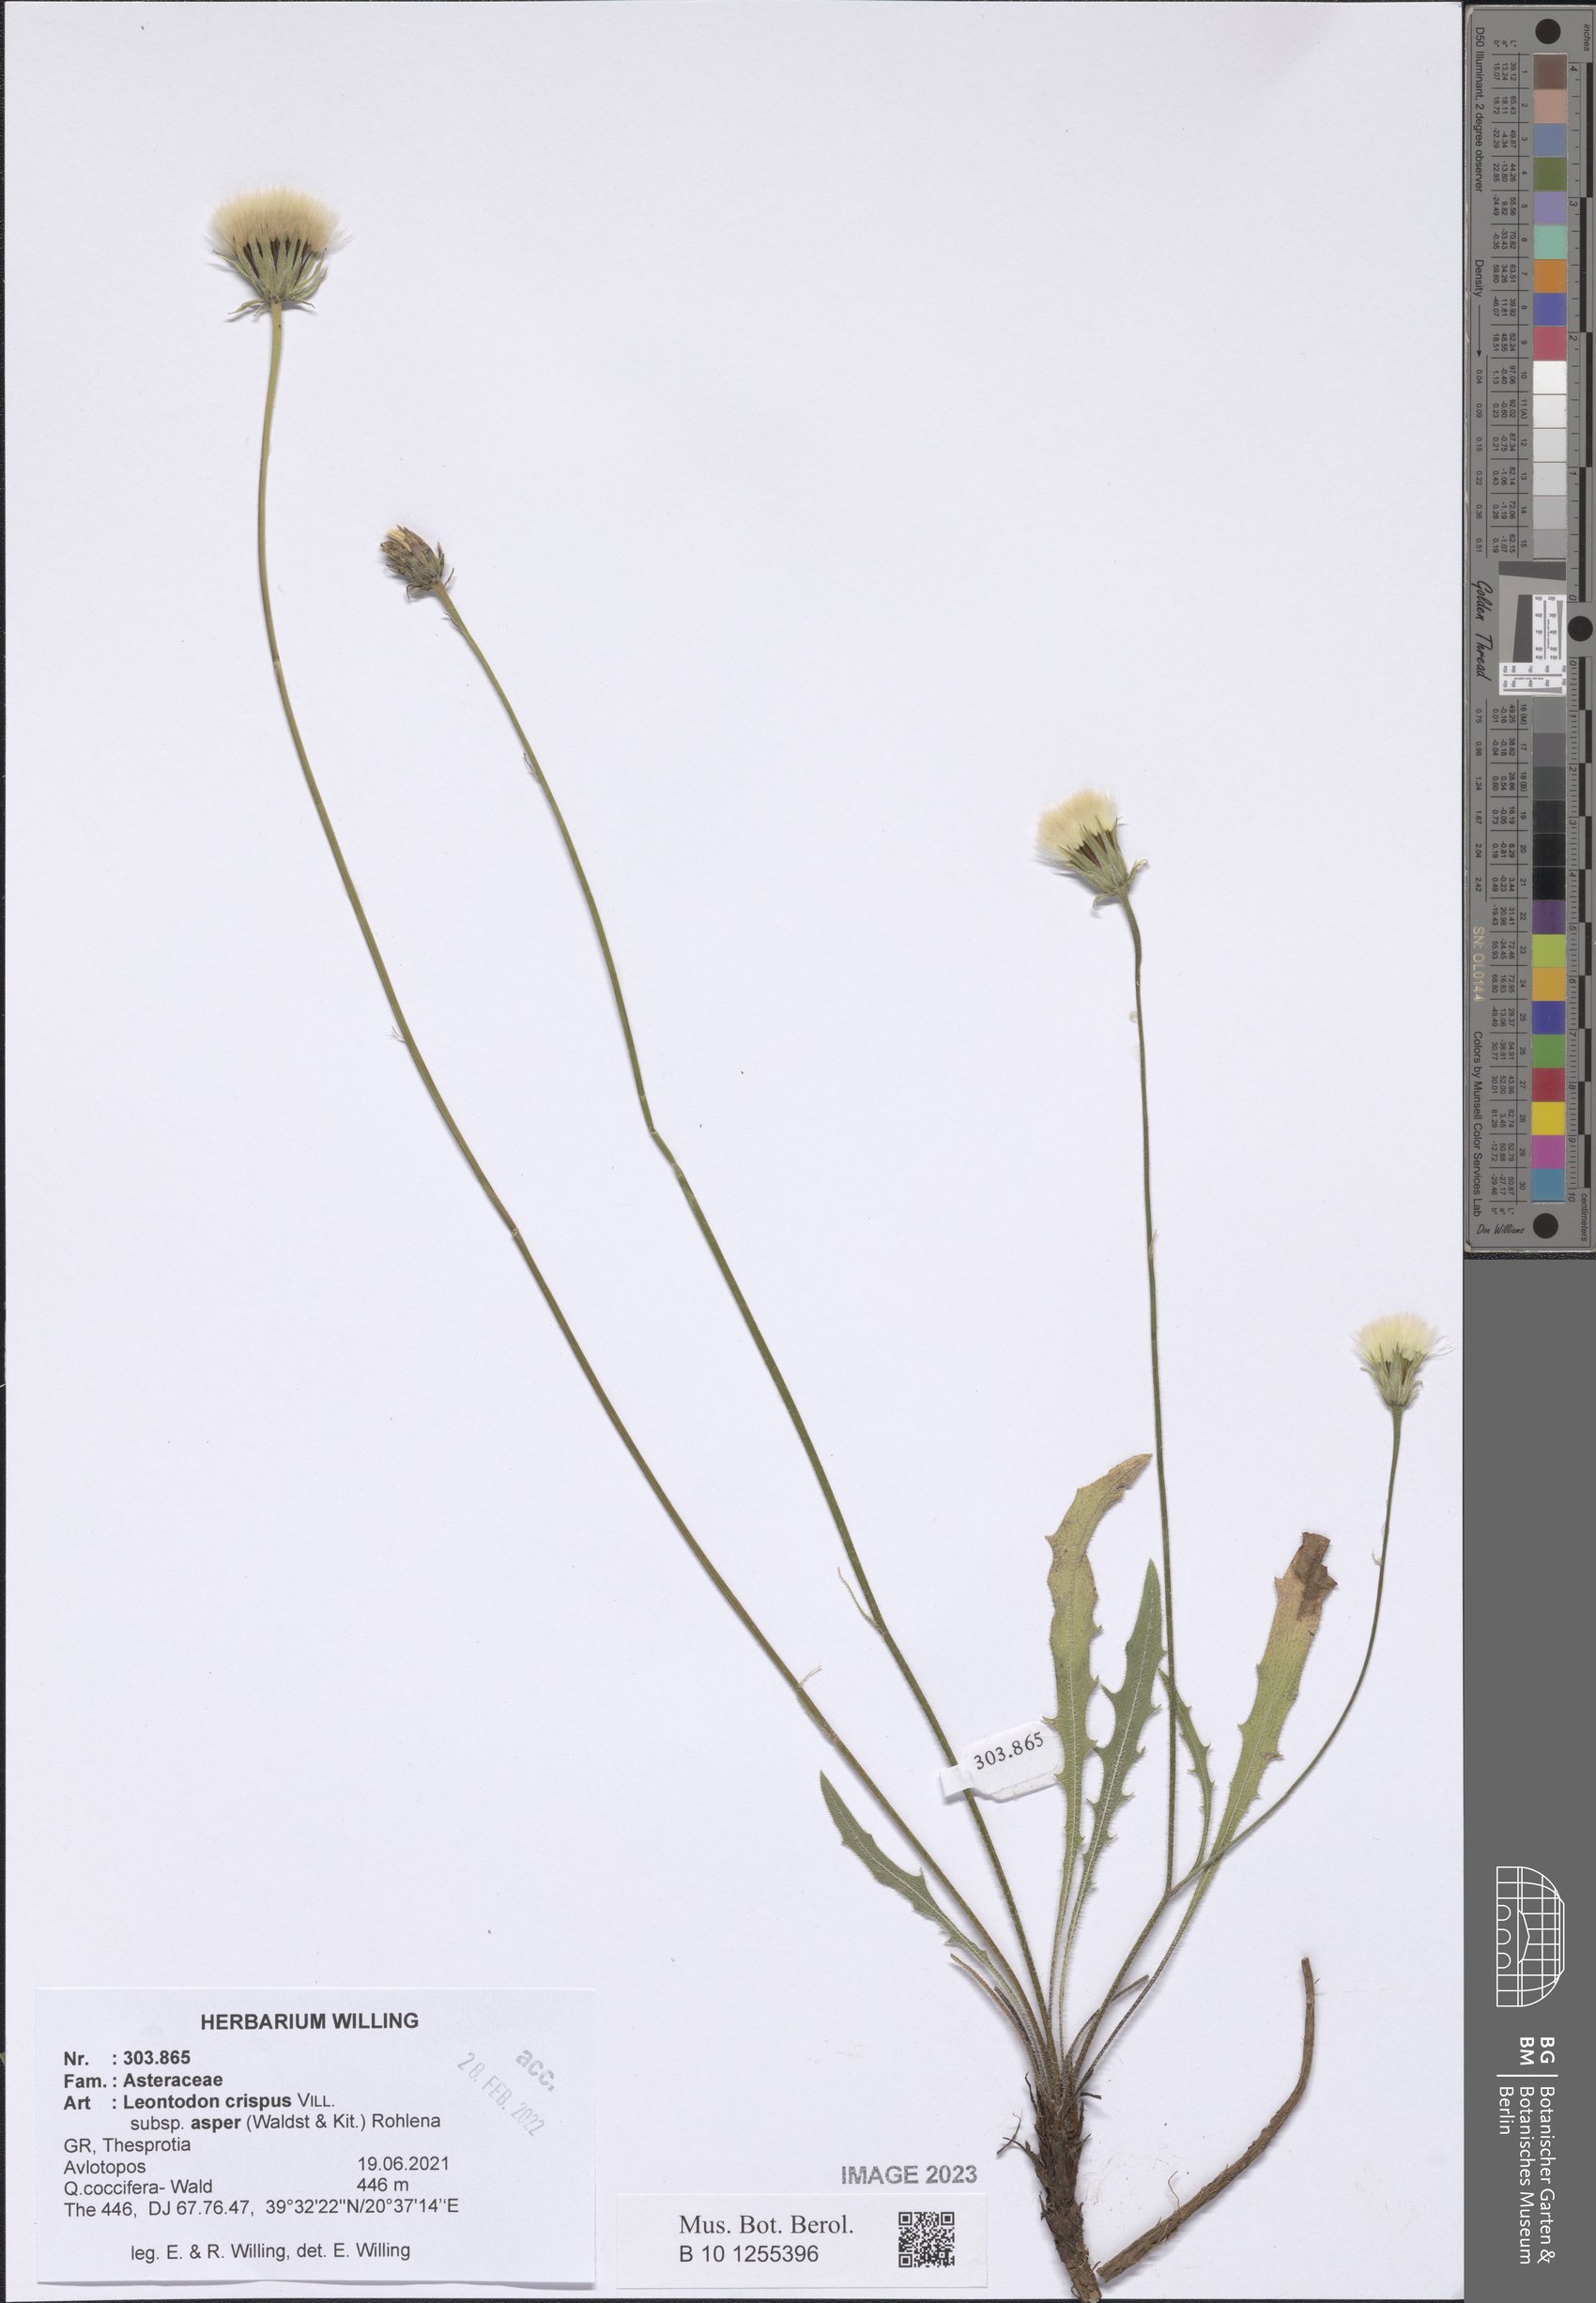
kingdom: Plantae
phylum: Tracheophyta
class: Magnoliopsida
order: Asterales
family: Asteraceae
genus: Leontodon
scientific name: Leontodon biscutellifolius
